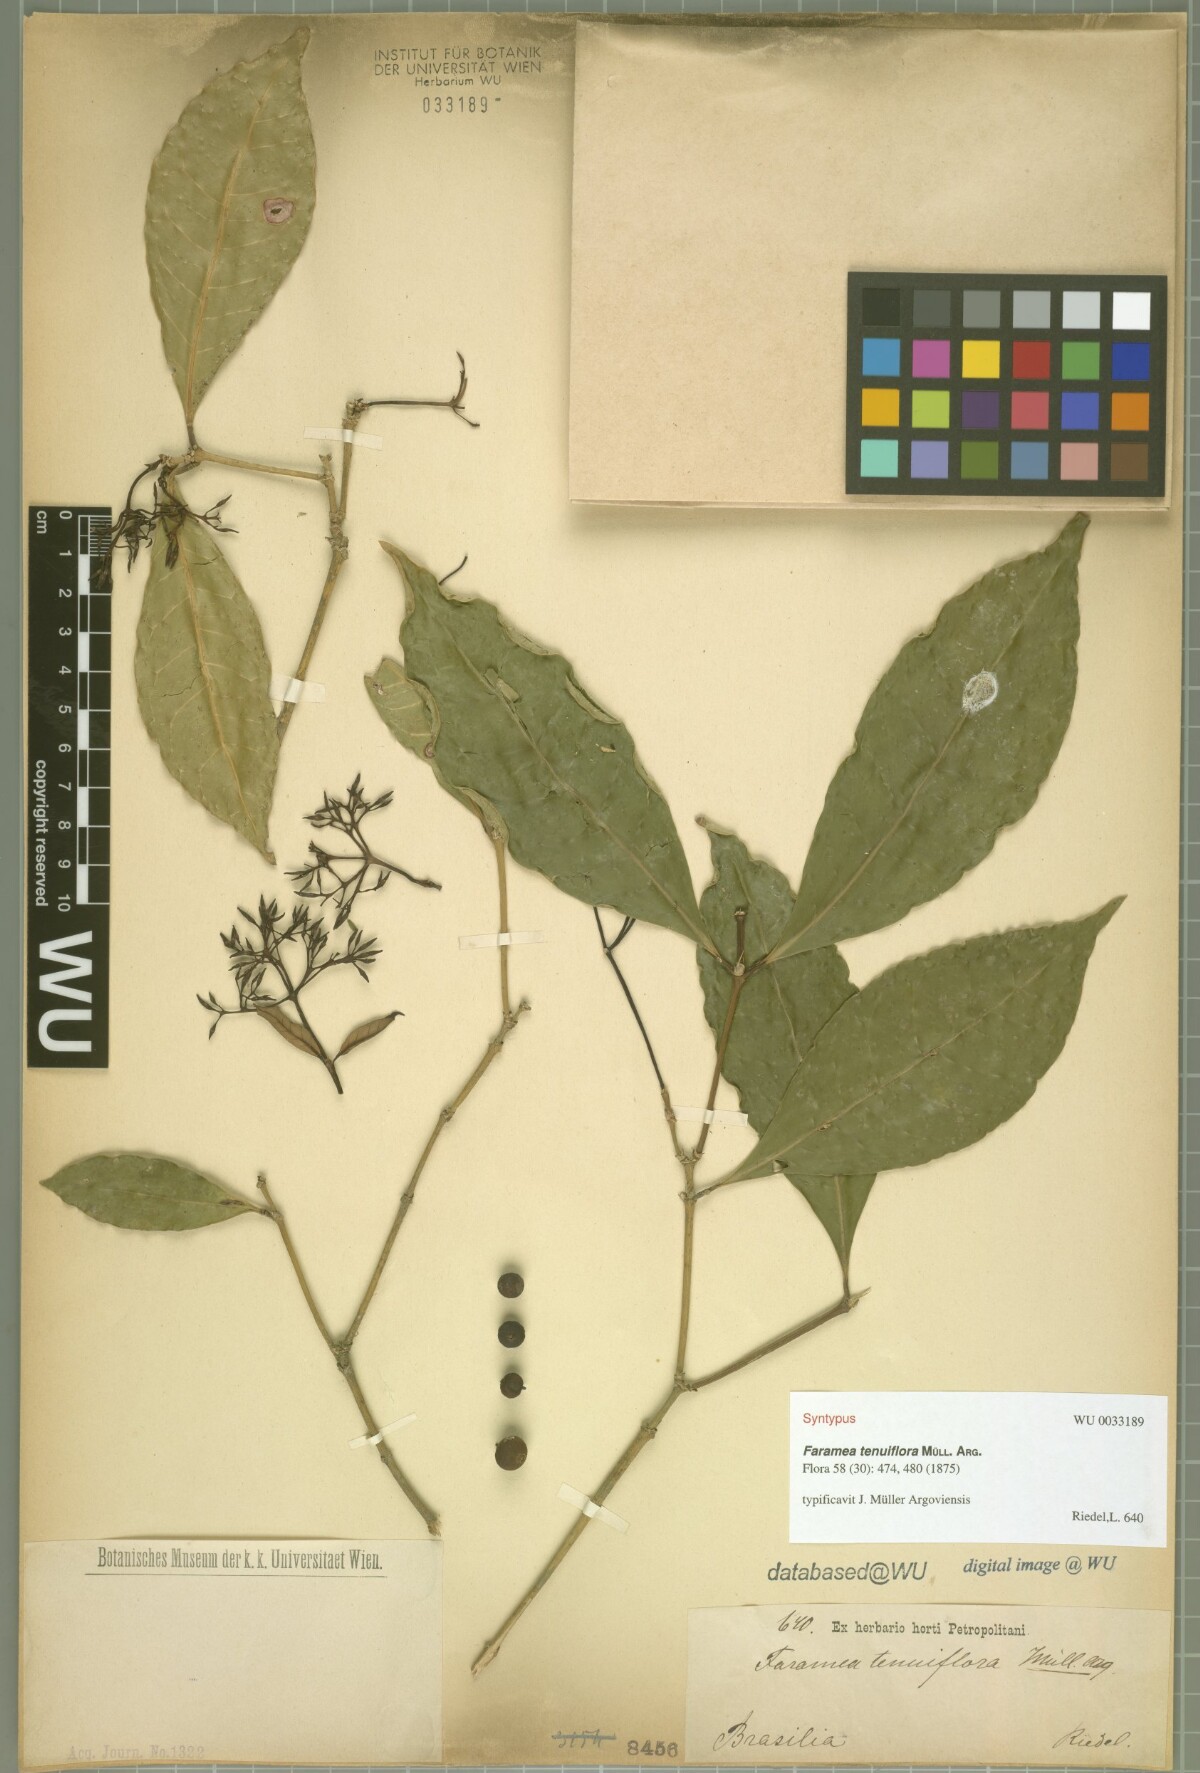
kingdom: Plantae
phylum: Tracheophyta
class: Magnoliopsida
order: Gentianales
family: Rubiaceae
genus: Faramea
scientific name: Faramea tenuiflora
